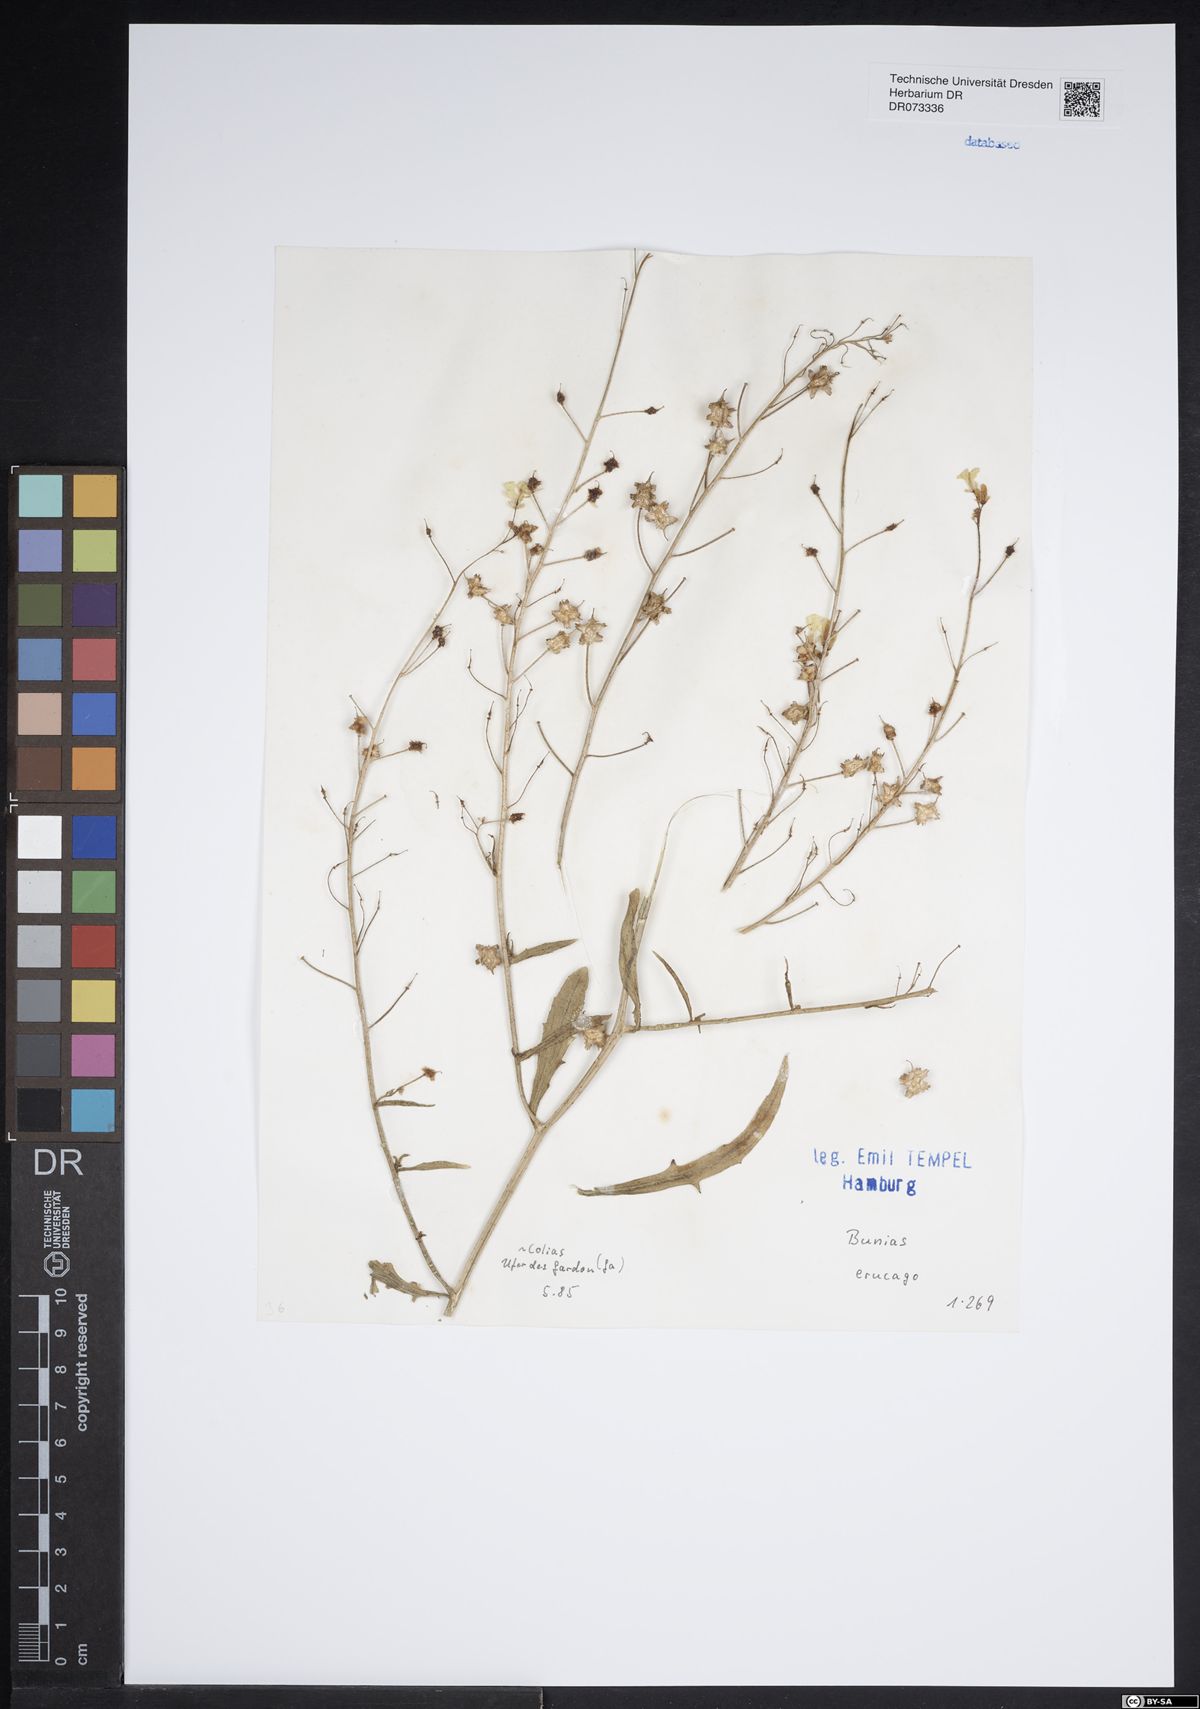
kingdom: Plantae
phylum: Tracheophyta
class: Magnoliopsida
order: Brassicales
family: Brassicaceae
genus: Bunias
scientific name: Bunias erucago
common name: Southern warty-cabbage
